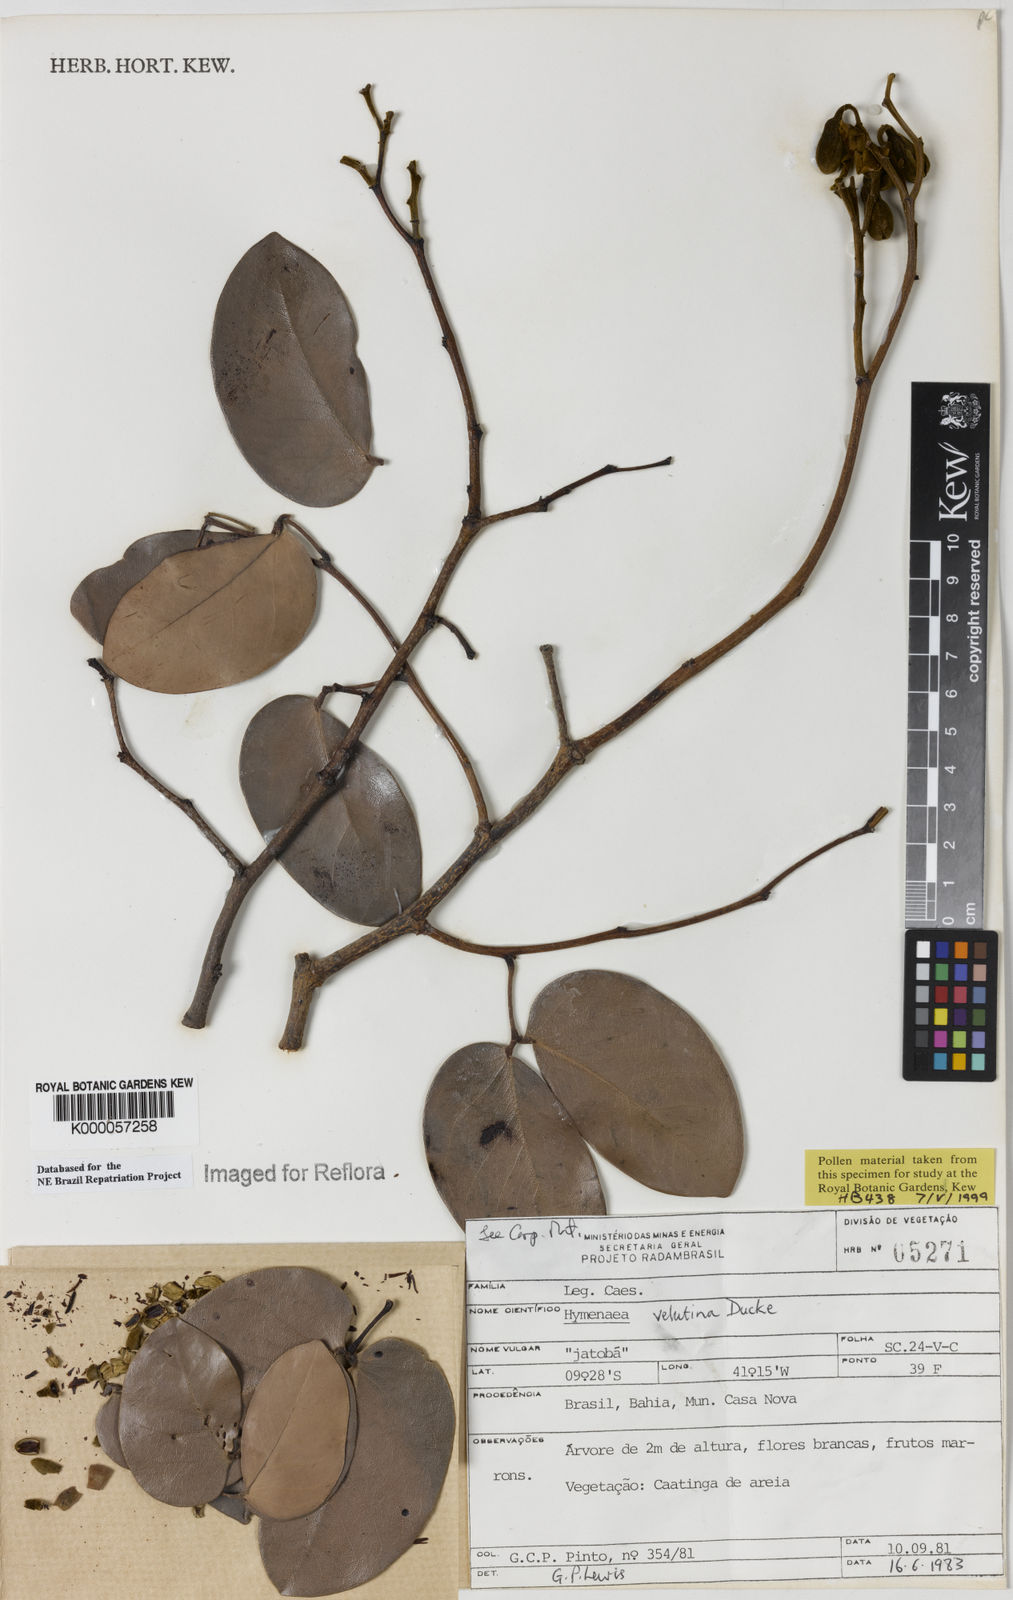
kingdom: Plantae
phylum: Tracheophyta
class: Magnoliopsida
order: Fabales
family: Fabaceae
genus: Hymenaea
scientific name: Hymenaea velutina
